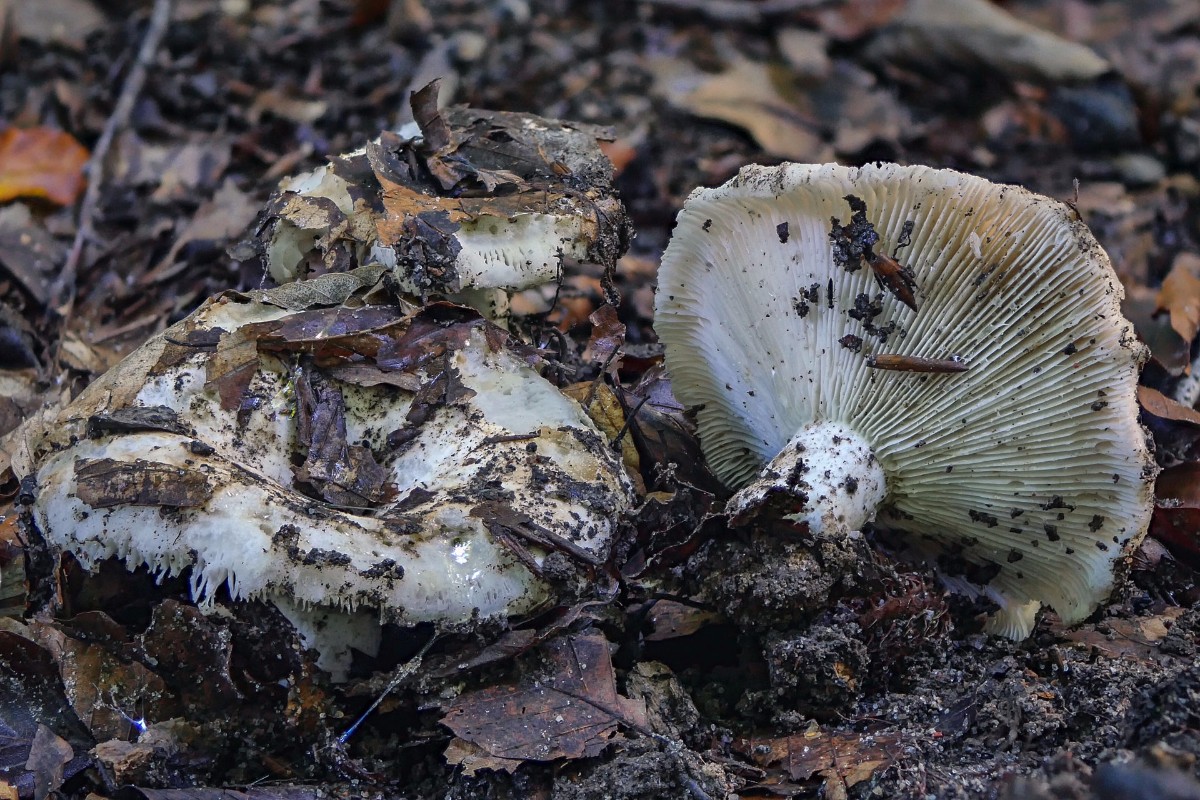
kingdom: Fungi
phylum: Basidiomycota
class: Agaricomycetes
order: Russulales
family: Russulaceae
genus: Russula
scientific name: Russula delica
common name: almindelig tragt-skørhat
